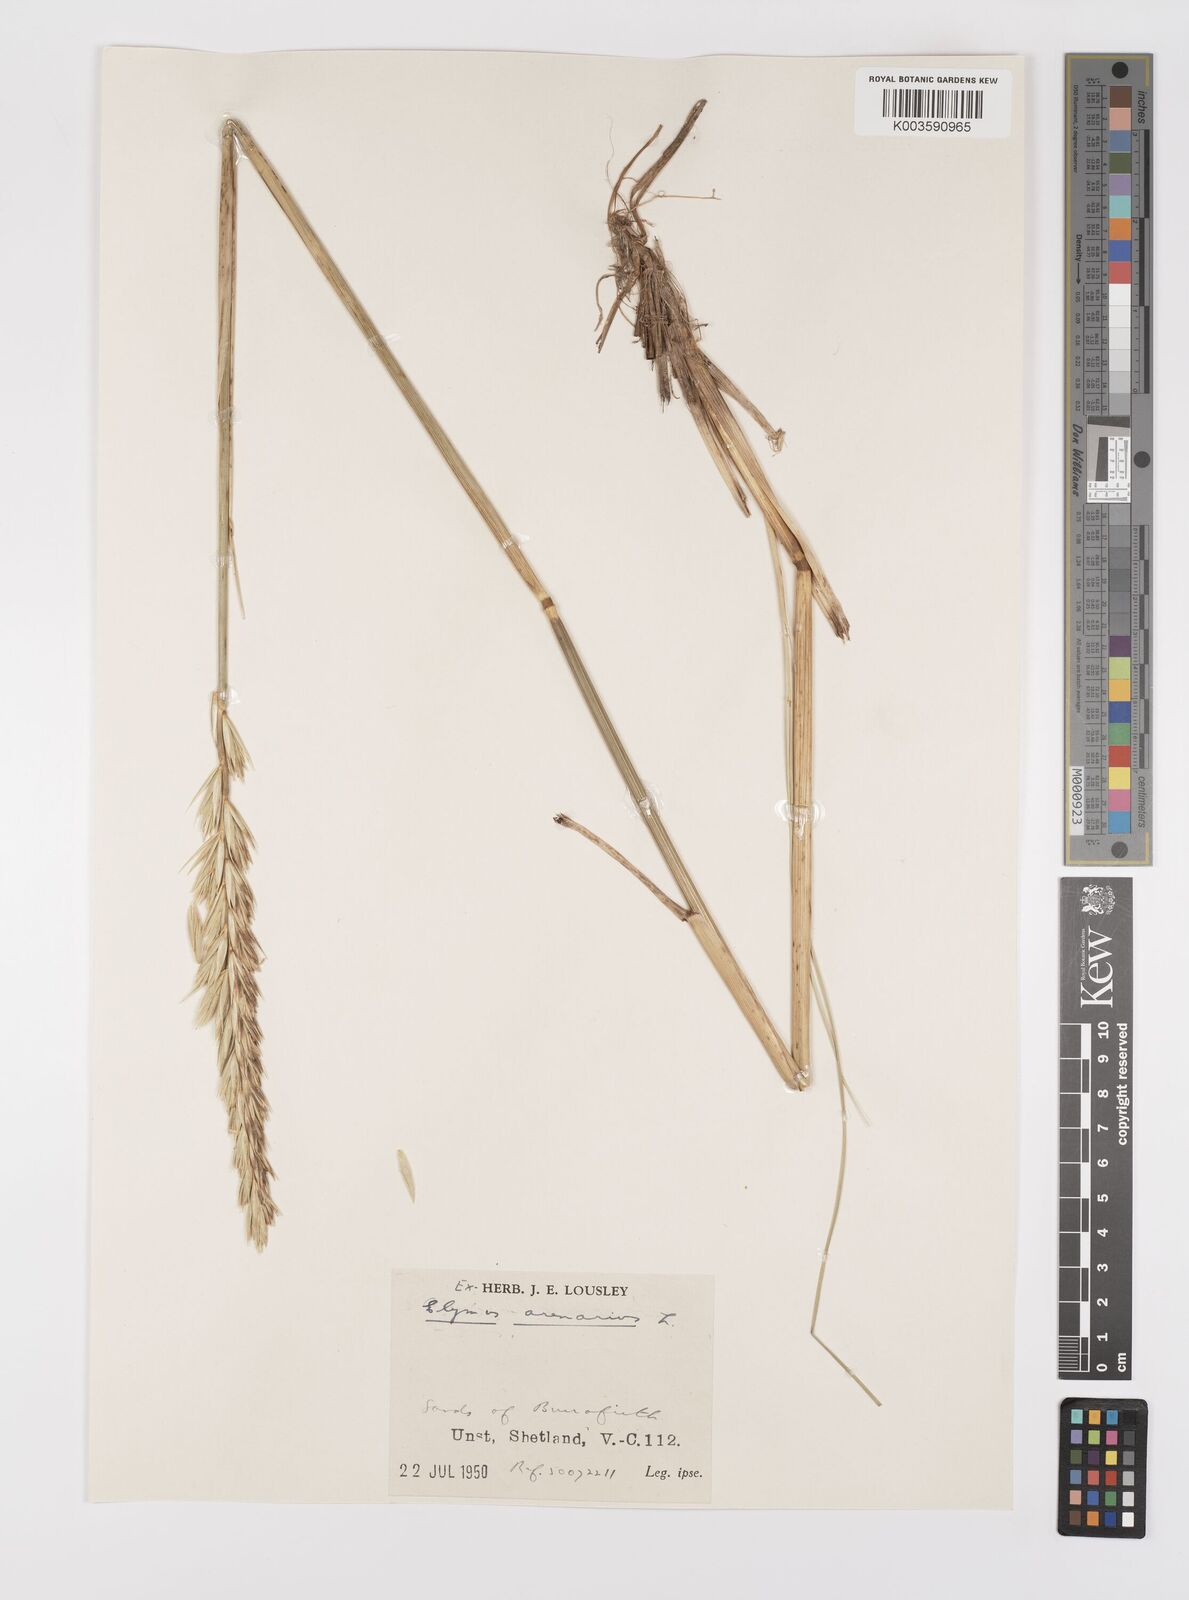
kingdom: Plantae
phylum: Tracheophyta
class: Liliopsida
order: Poales
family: Poaceae
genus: Leymus
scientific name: Leymus arenarius
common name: Lyme-grass
